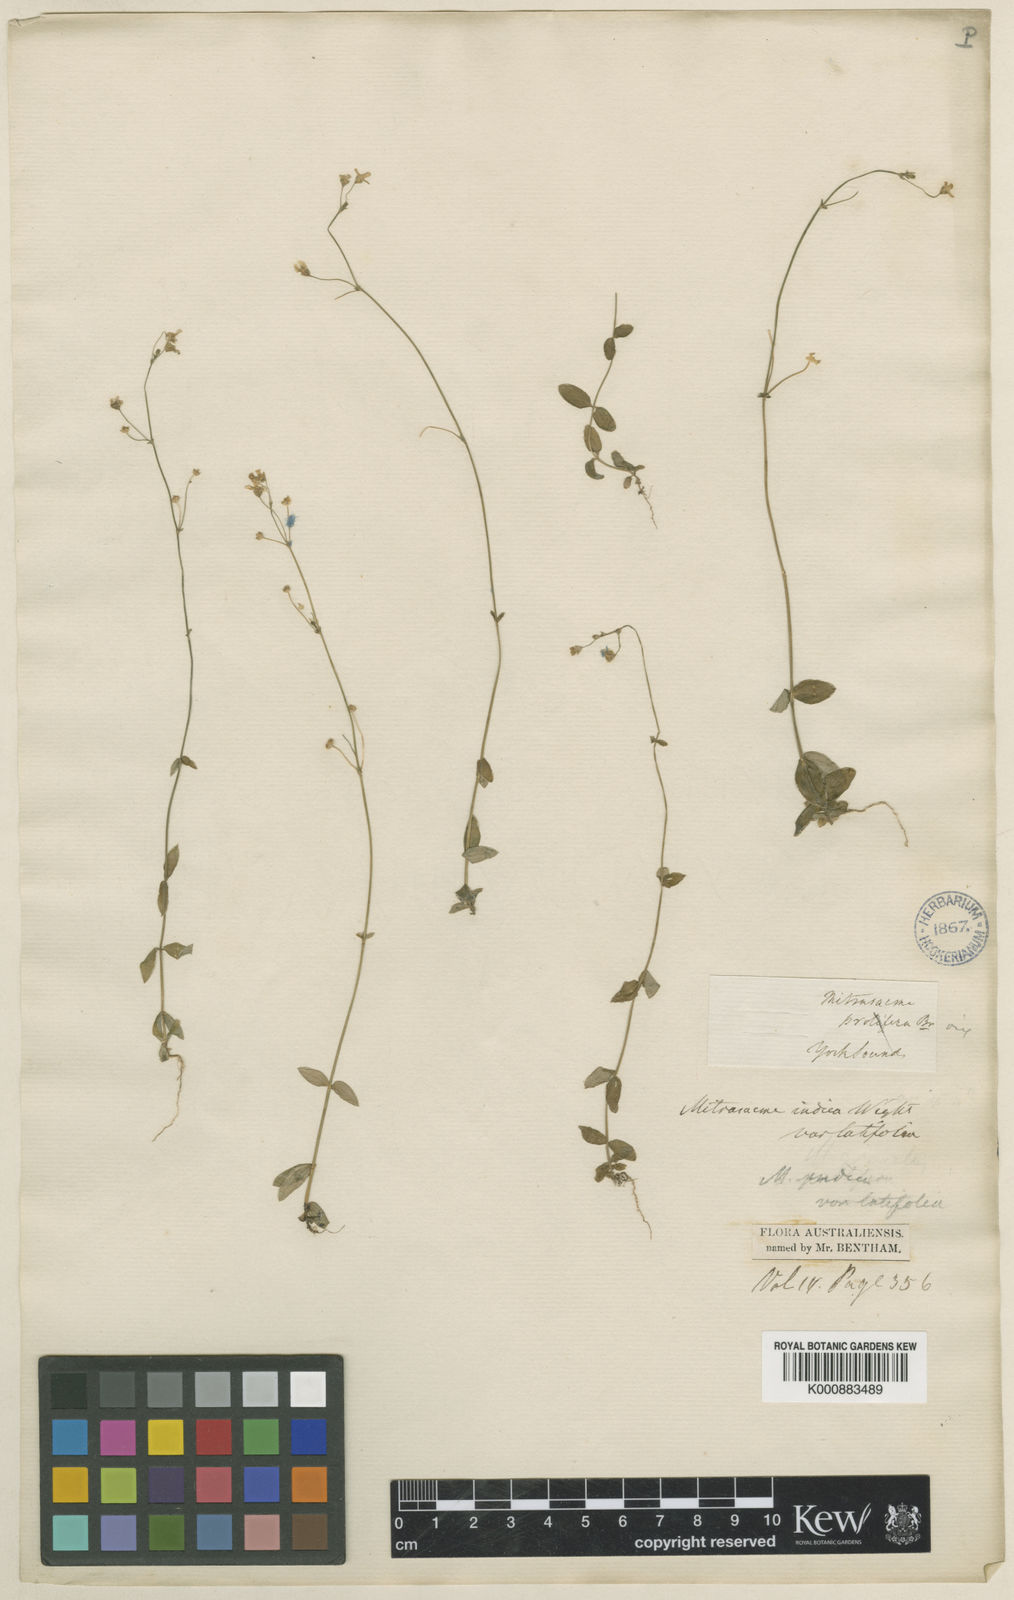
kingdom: Plantae
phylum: Tracheophyta
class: Magnoliopsida
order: Gentianales
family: Loganiaceae
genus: Mitrasacme
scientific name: Mitrasacme nummularia
